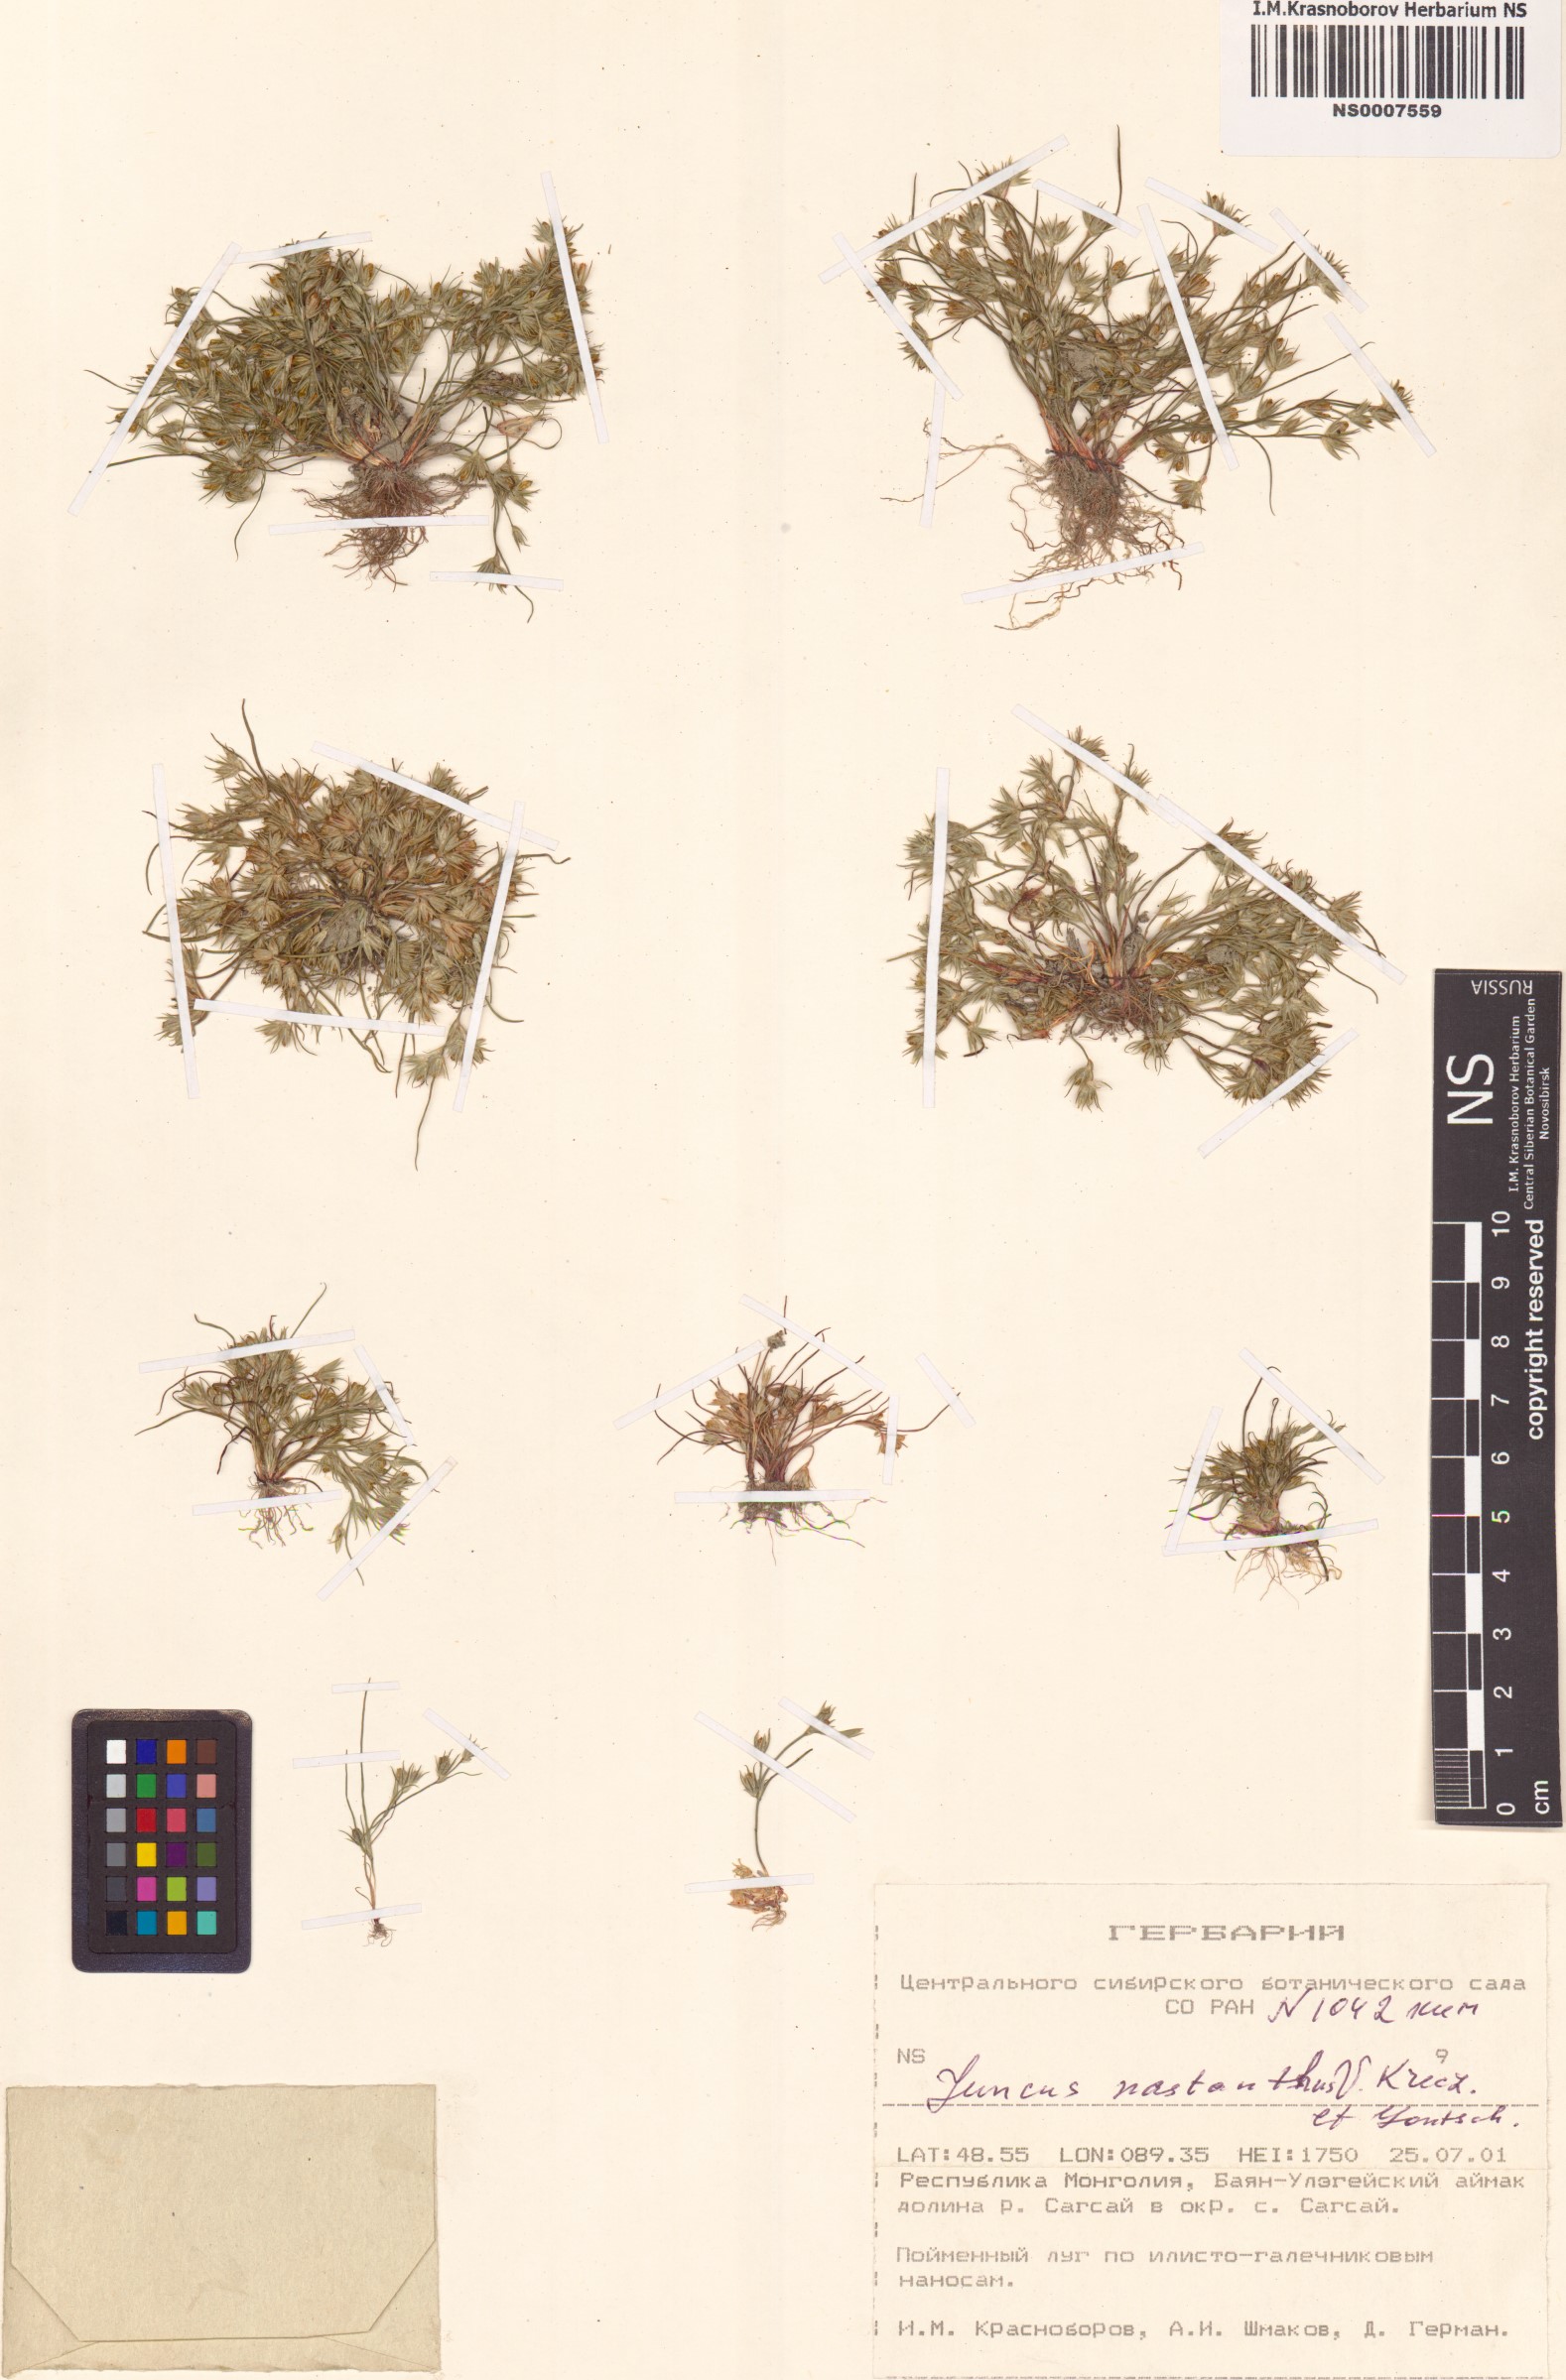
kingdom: Plantae
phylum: Tracheophyta
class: Liliopsida
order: Poales
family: Juncaceae
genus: Juncus
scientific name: Juncus ranarius
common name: Frog rush
